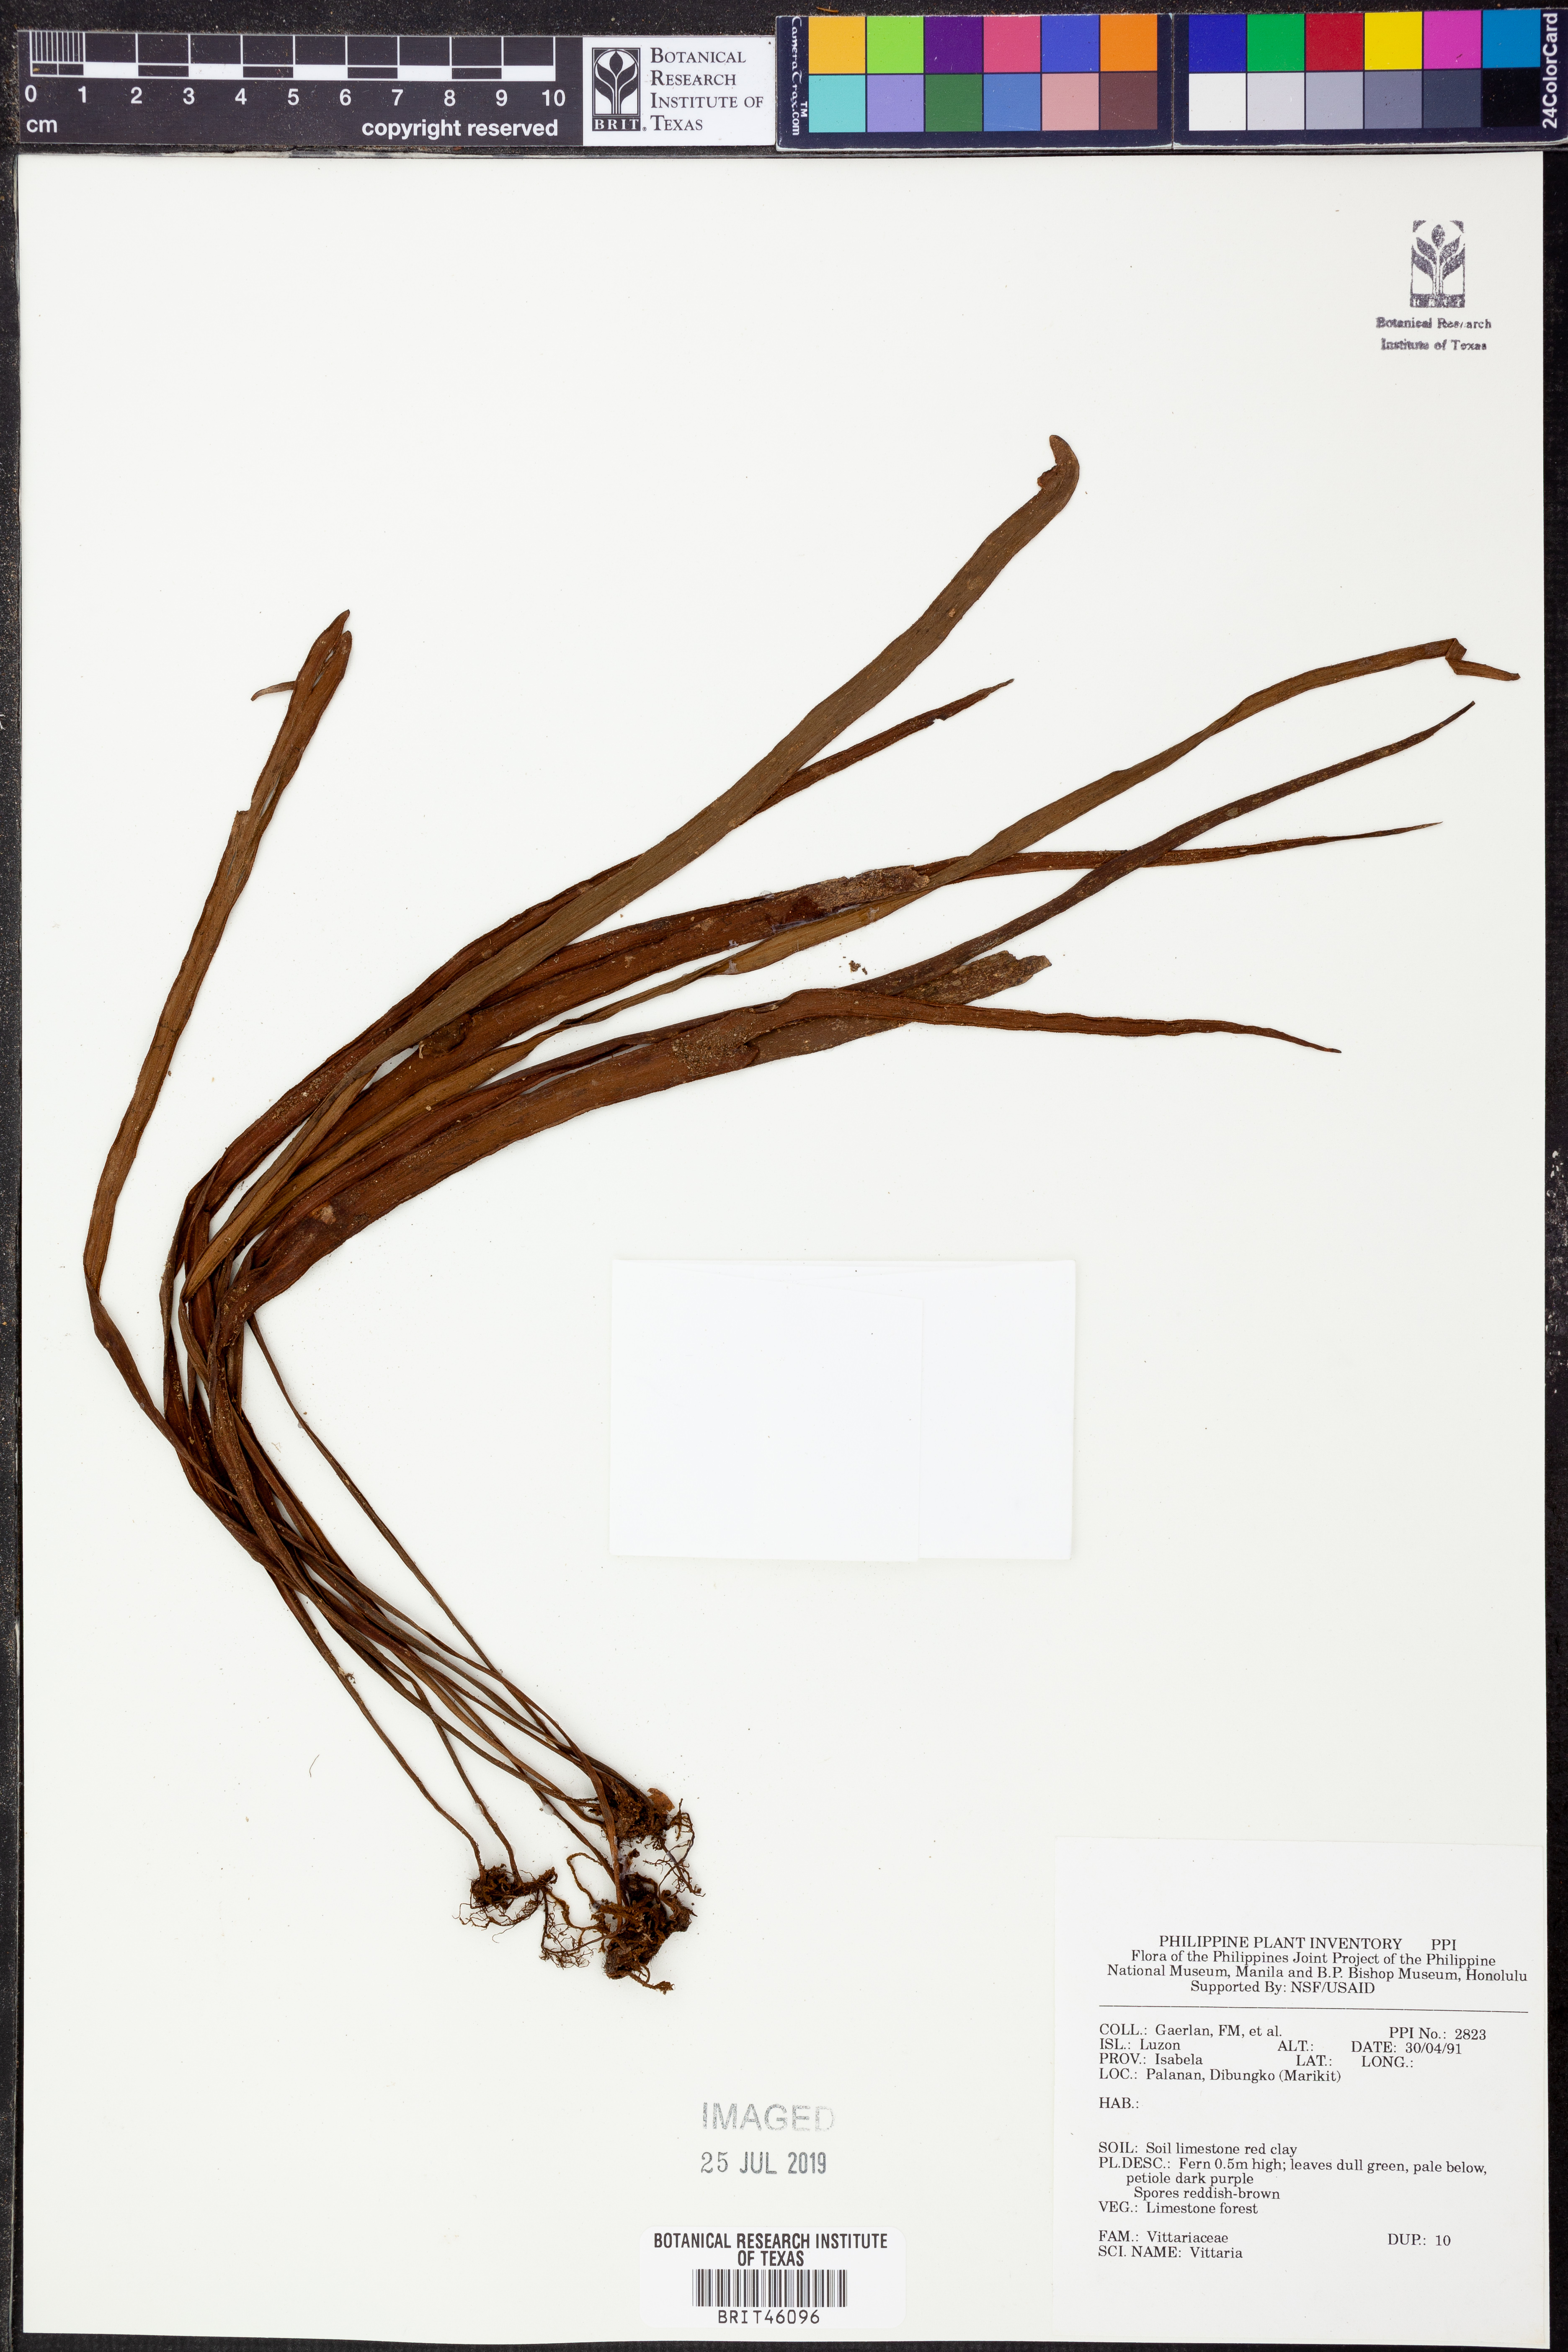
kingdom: Plantae
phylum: Tracheophyta
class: Polypodiopsida
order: Polypodiales
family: Pteridaceae
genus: Vittaria
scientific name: Vittaria
